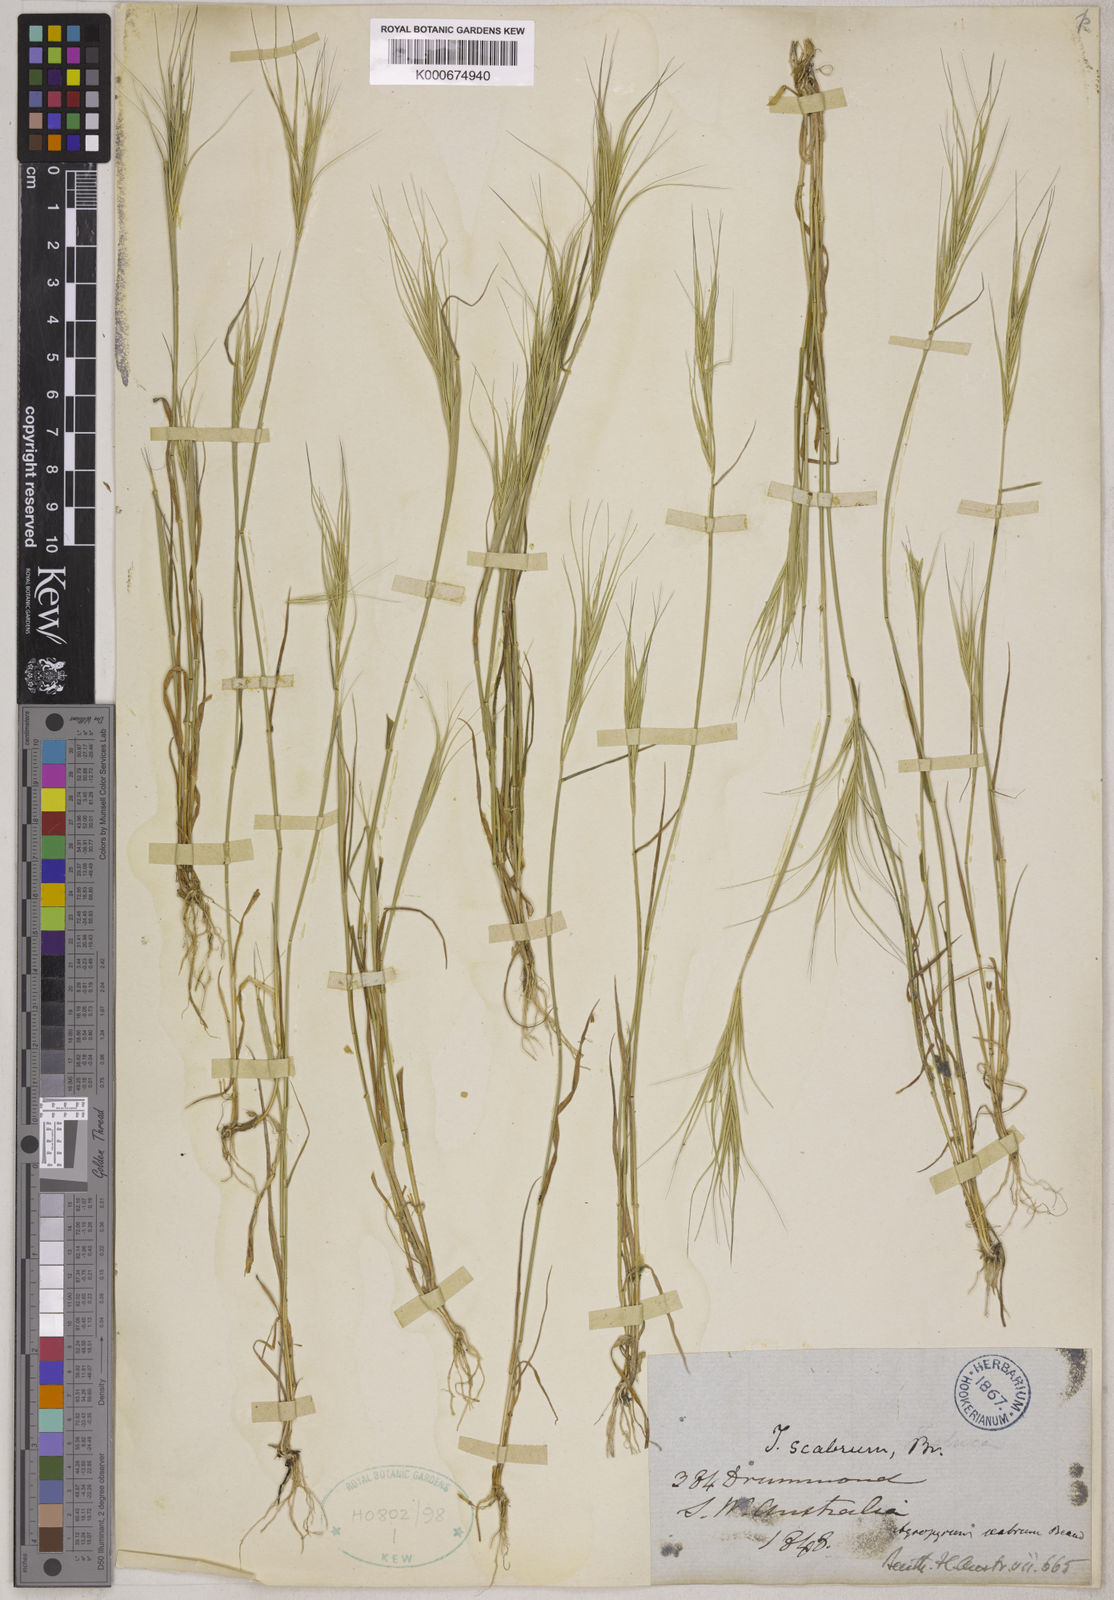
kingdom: Plantae
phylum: Tracheophyta
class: Liliopsida
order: Poales
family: Poaceae
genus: Elymus
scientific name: Elymus
